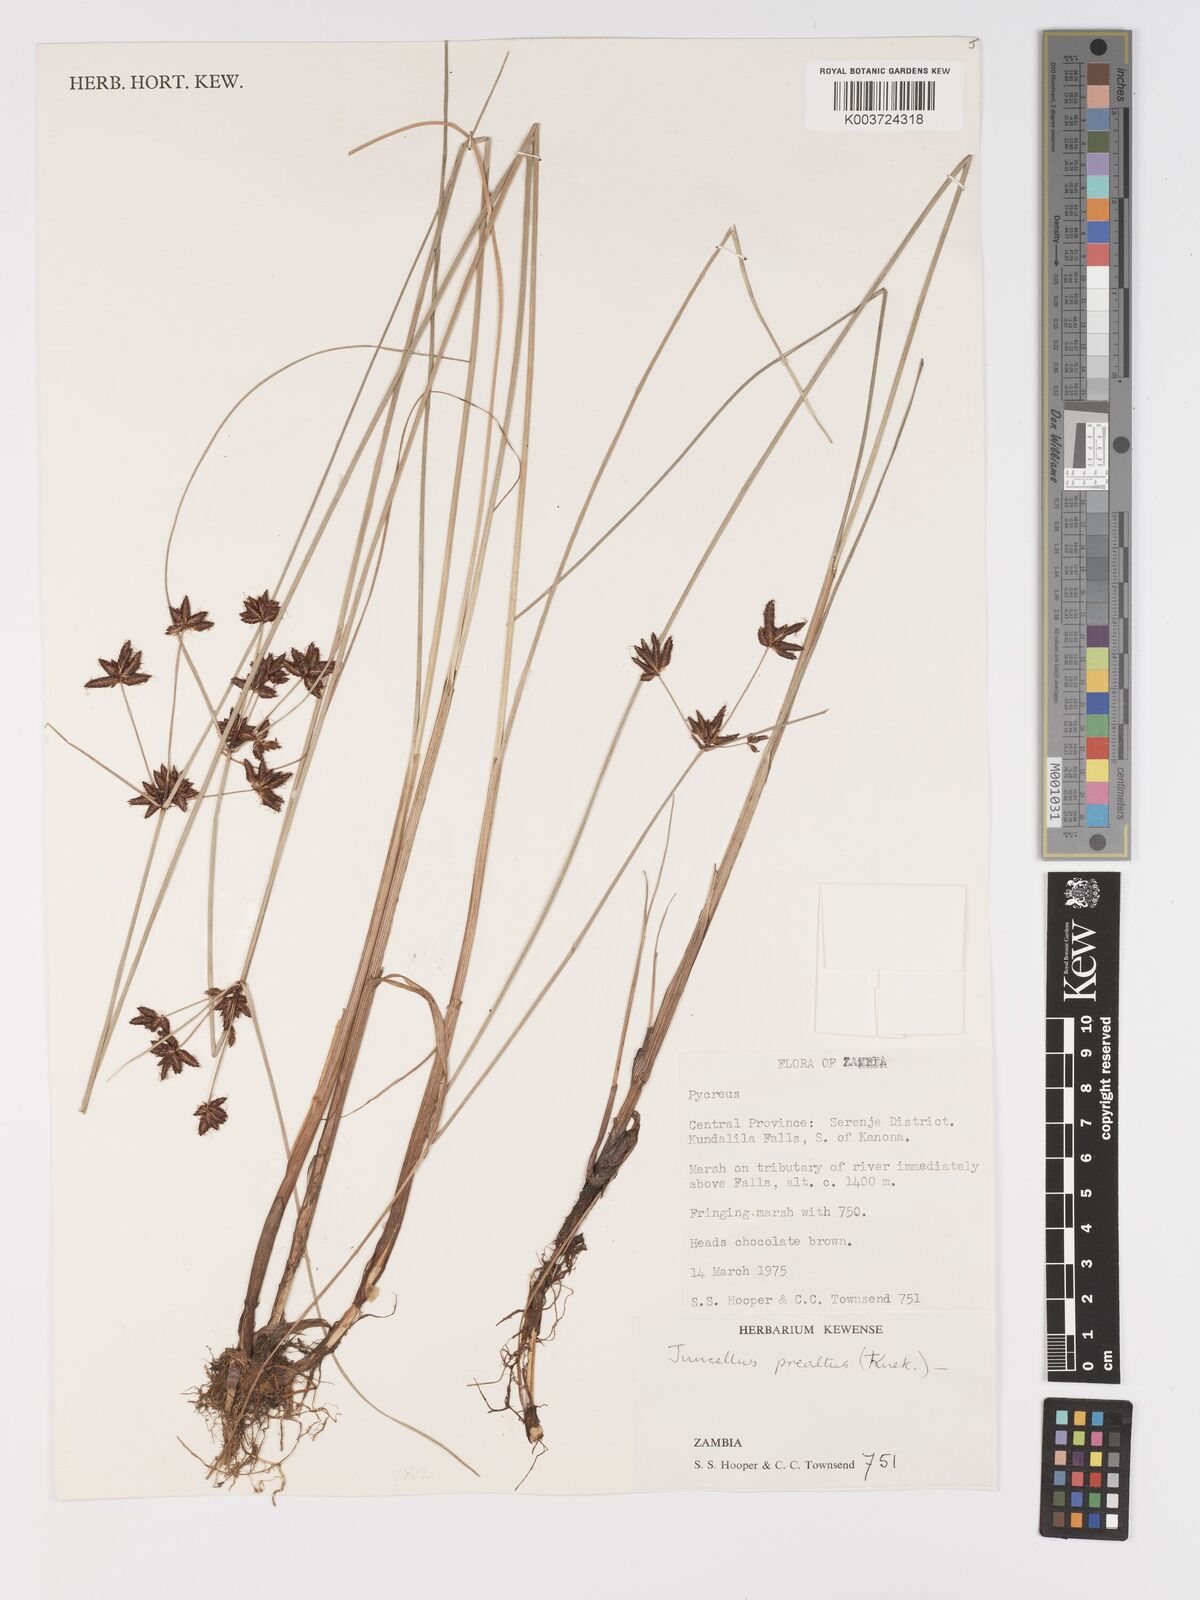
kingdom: Plantae
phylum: Tracheophyta
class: Liliopsida
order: Poales
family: Cyperaceae
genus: Cyperus
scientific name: Cyperus praealtus
